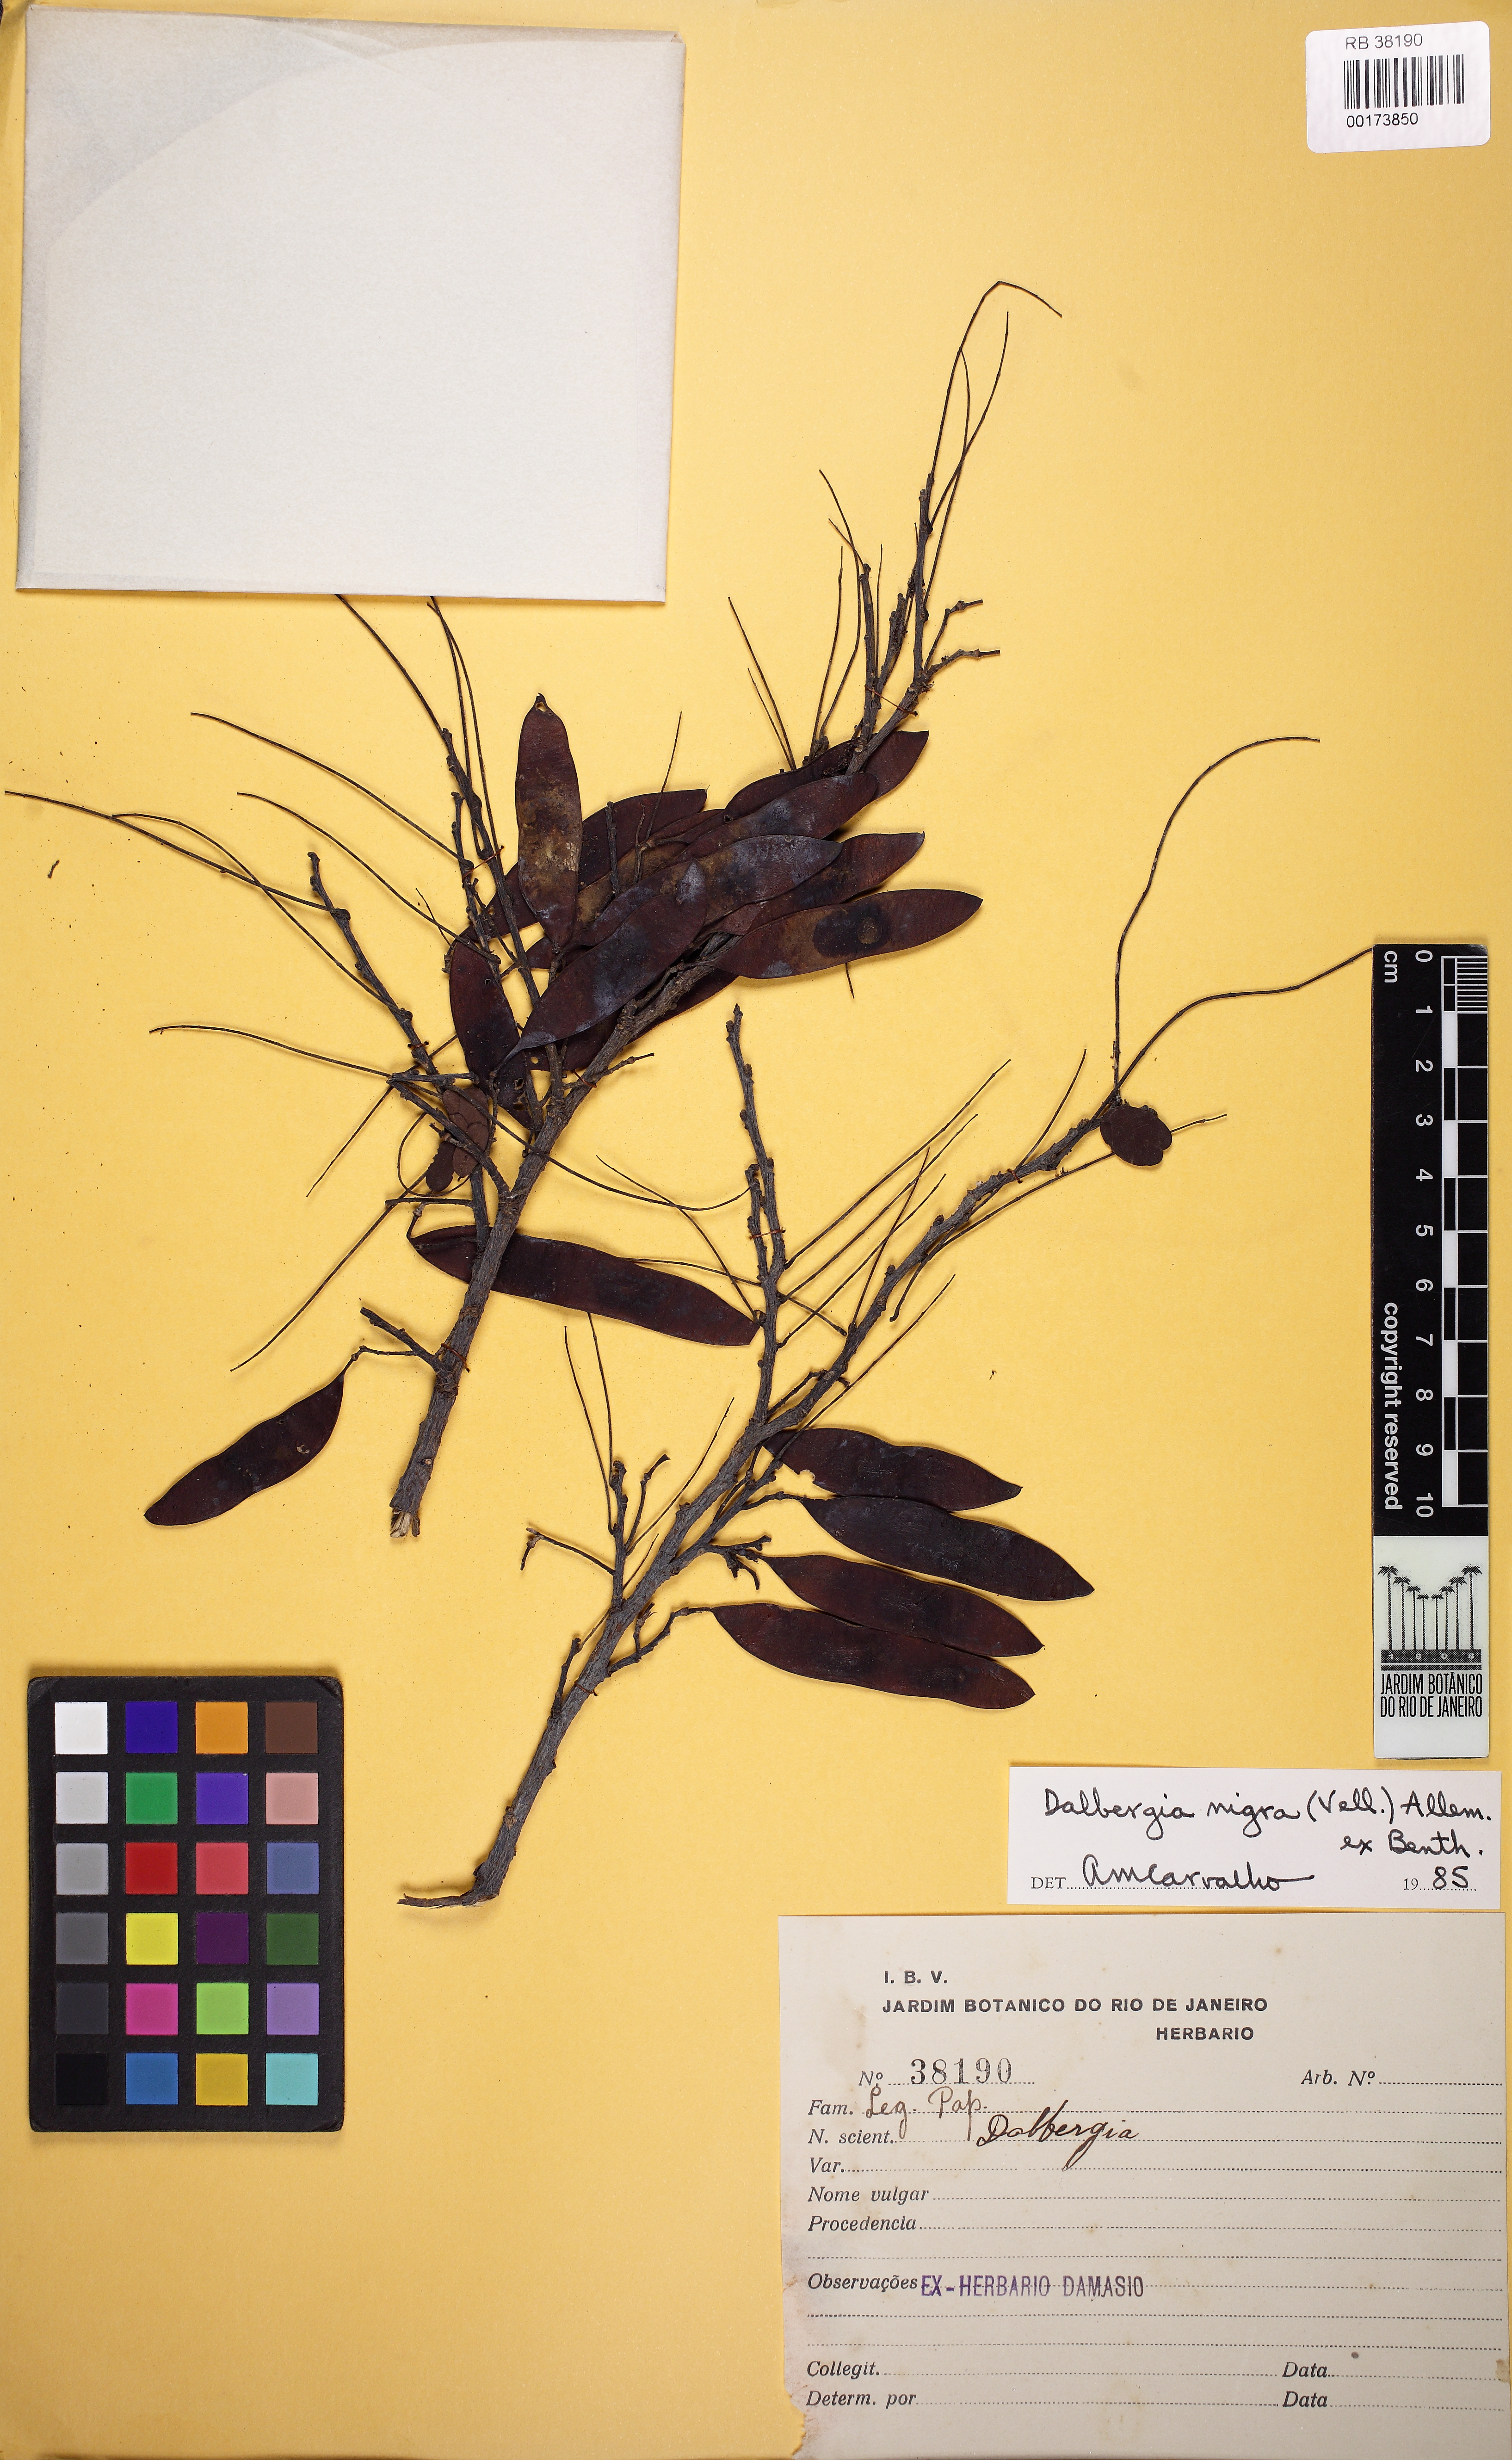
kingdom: Plantae
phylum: Tracheophyta
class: Magnoliopsida
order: Fabales
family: Fabaceae
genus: Dalbergia
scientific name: Dalbergia nigra
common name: Bahia rosewood
